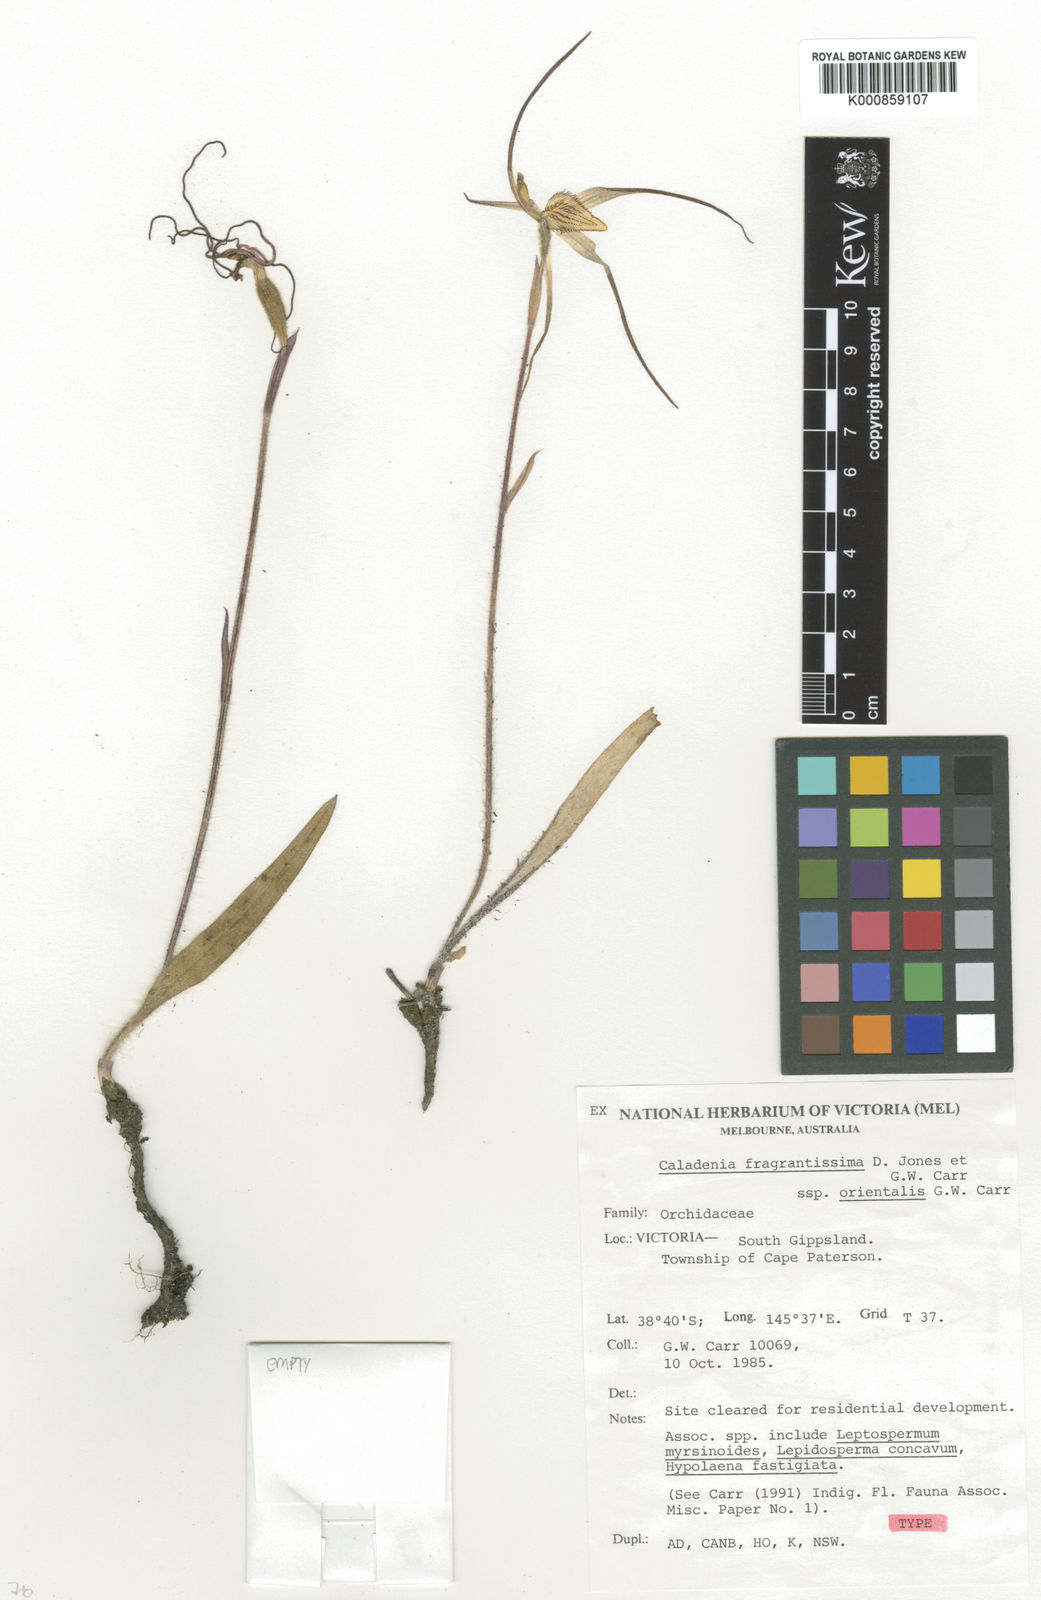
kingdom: Plantae
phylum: Tracheophyta
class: Liliopsida
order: Asparagales
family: Orchidaceae
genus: Caladenia
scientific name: Caladenia orientalis
